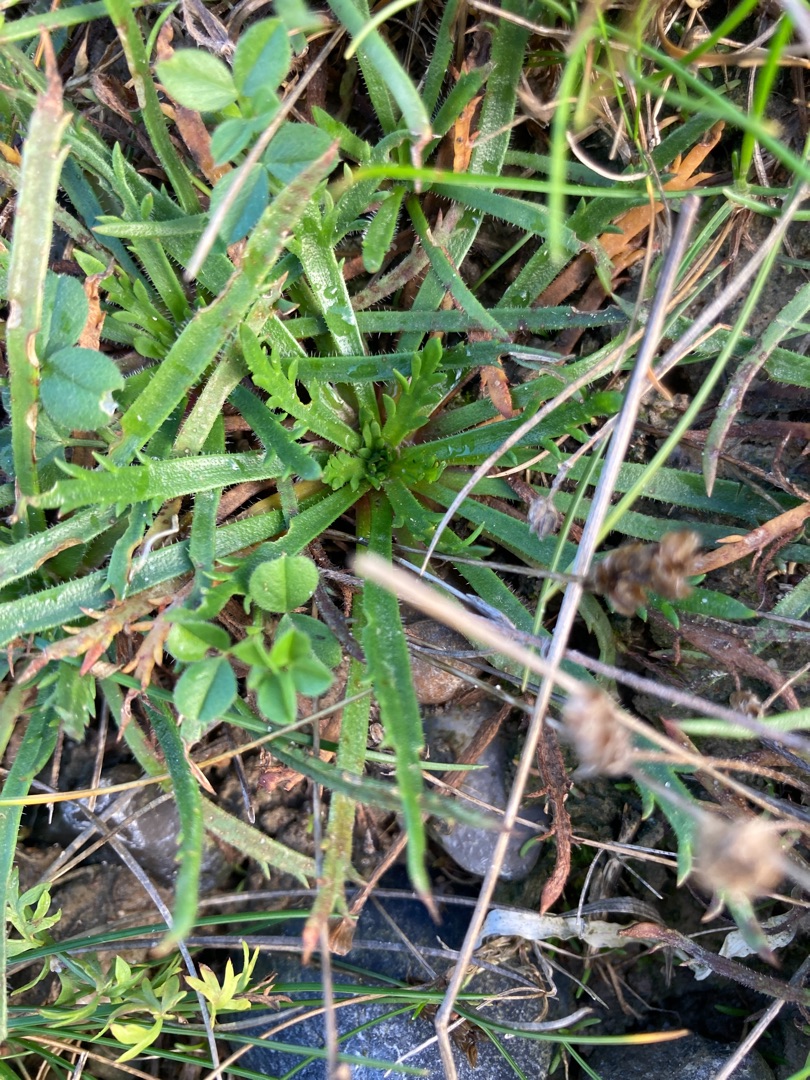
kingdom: Plantae
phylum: Tracheophyta
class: Magnoliopsida
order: Lamiales
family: Plantaginaceae
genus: Plantago
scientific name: Plantago coronopus
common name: Fliget vejbred
